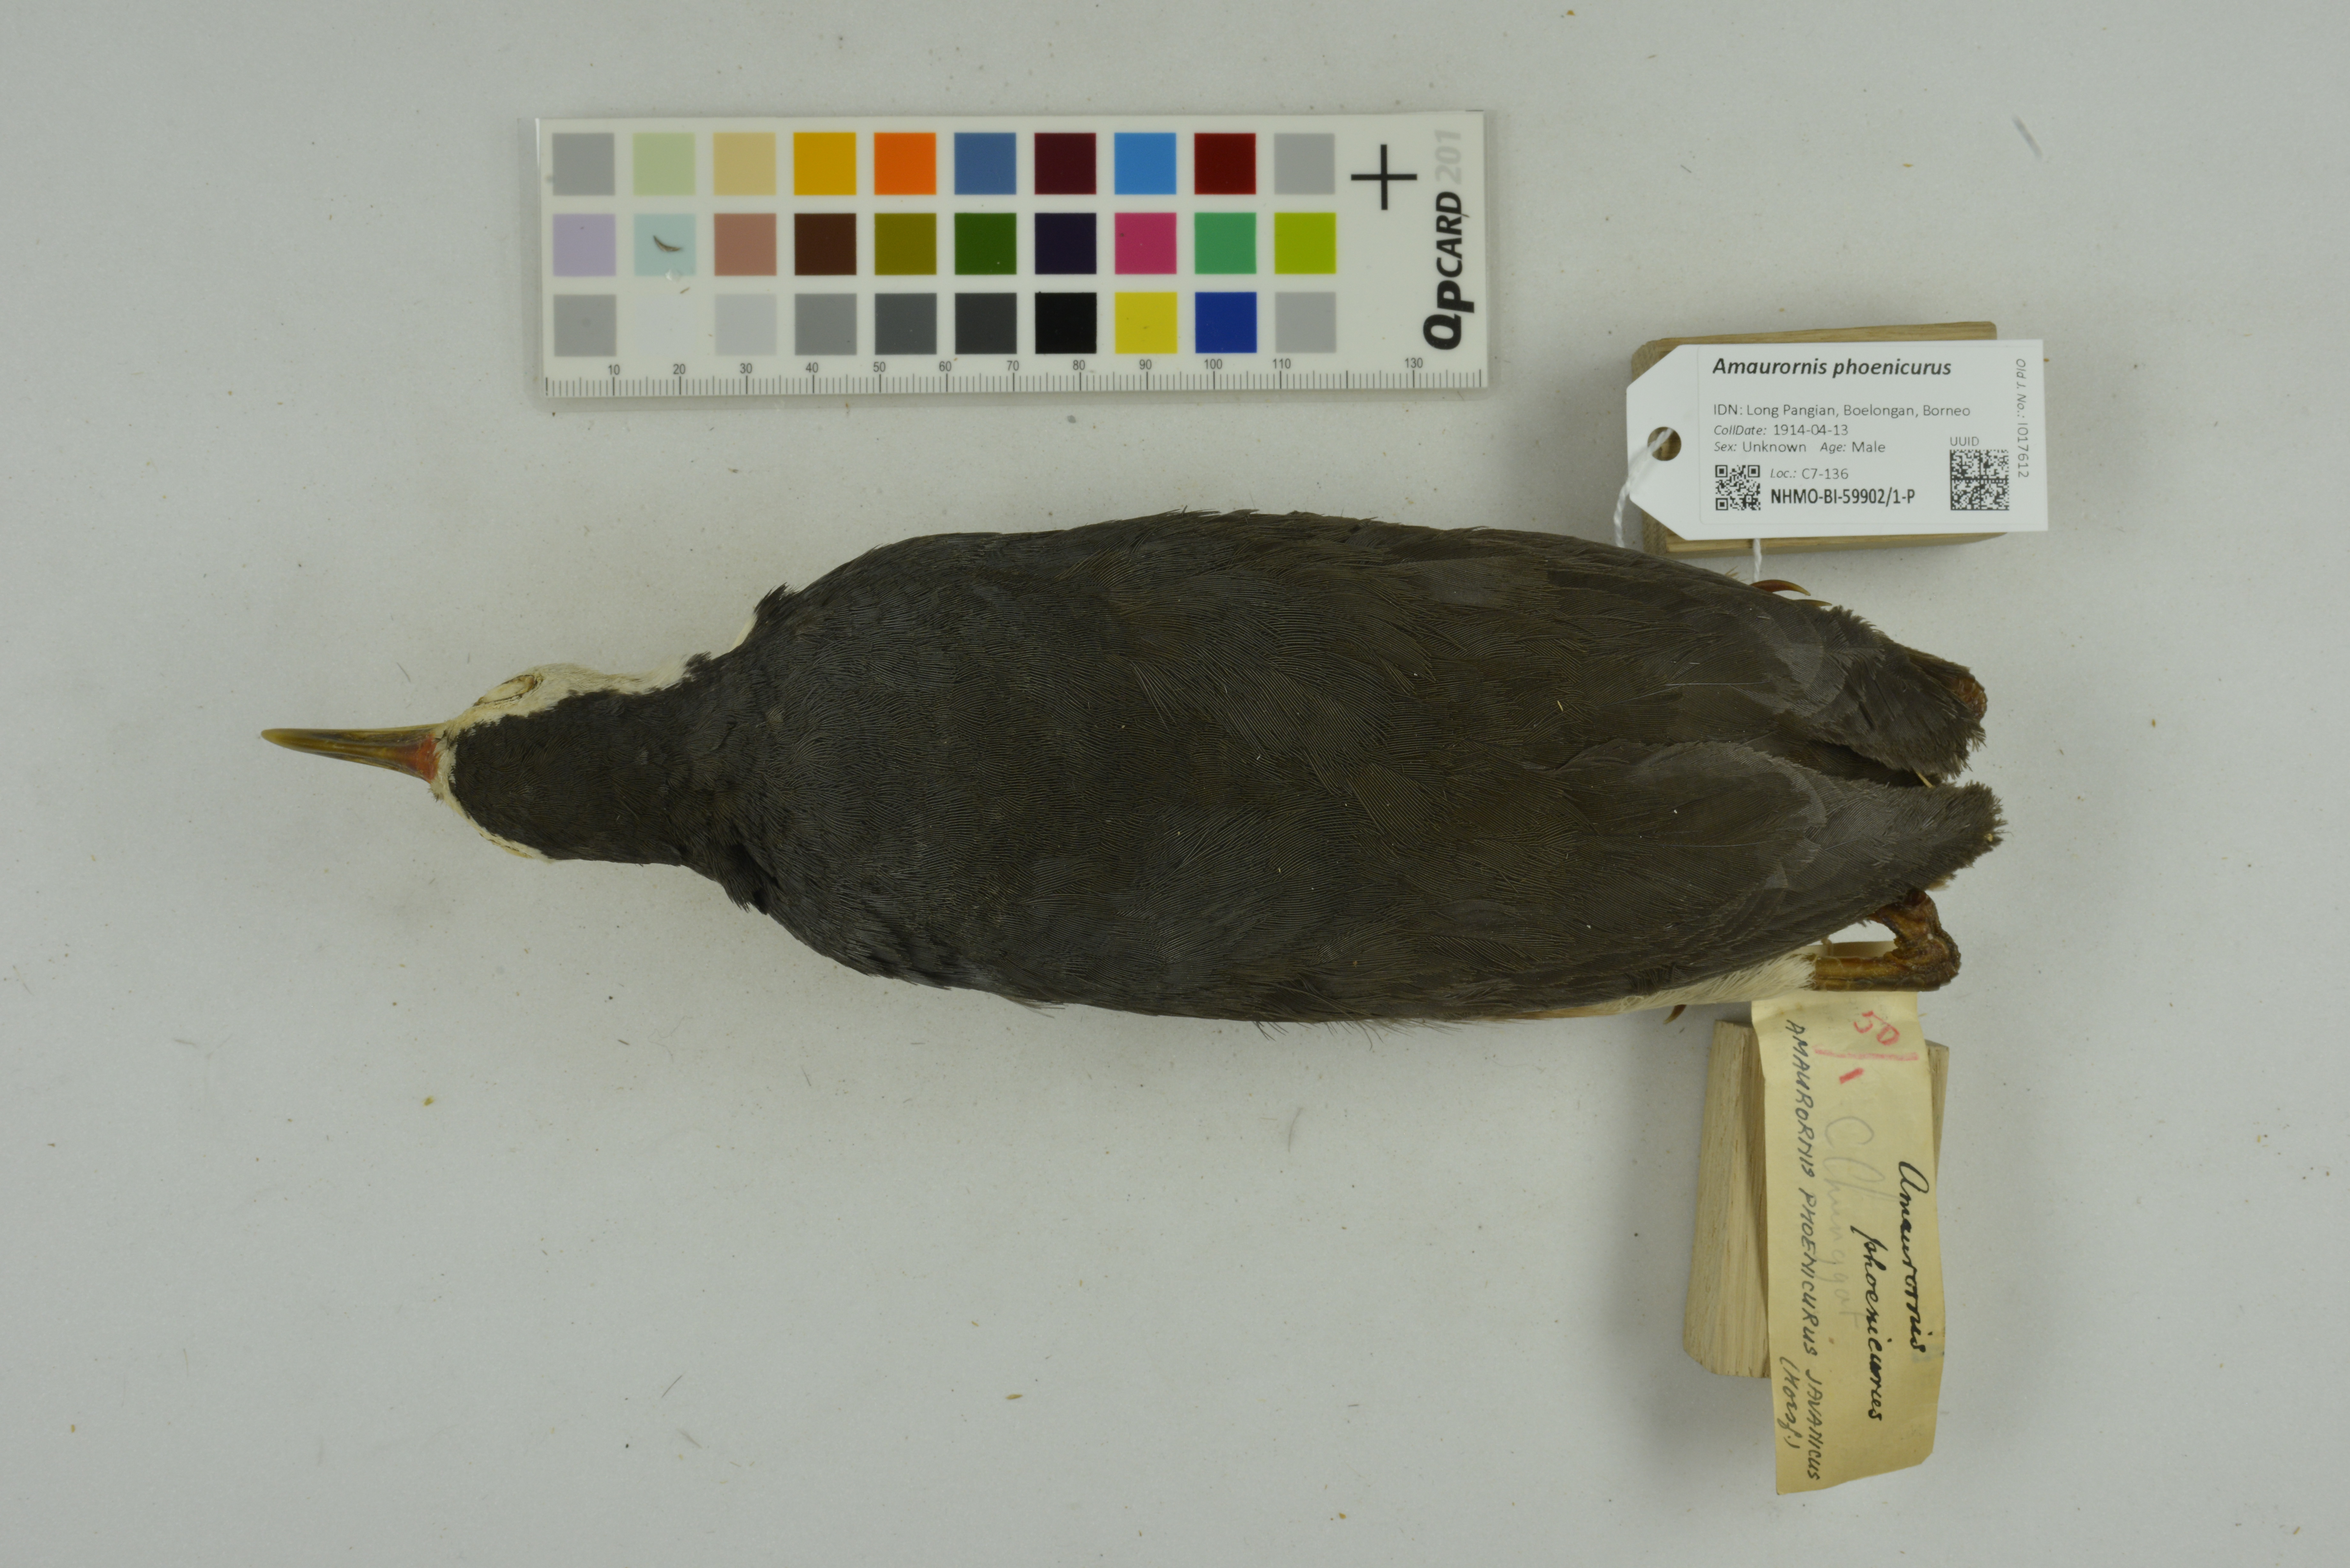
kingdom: Animalia
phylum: Chordata
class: Aves
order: Gruiformes
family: Rallidae
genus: Amaurornis
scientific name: Amaurornis phoenicurus
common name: White-breasted waterhen
